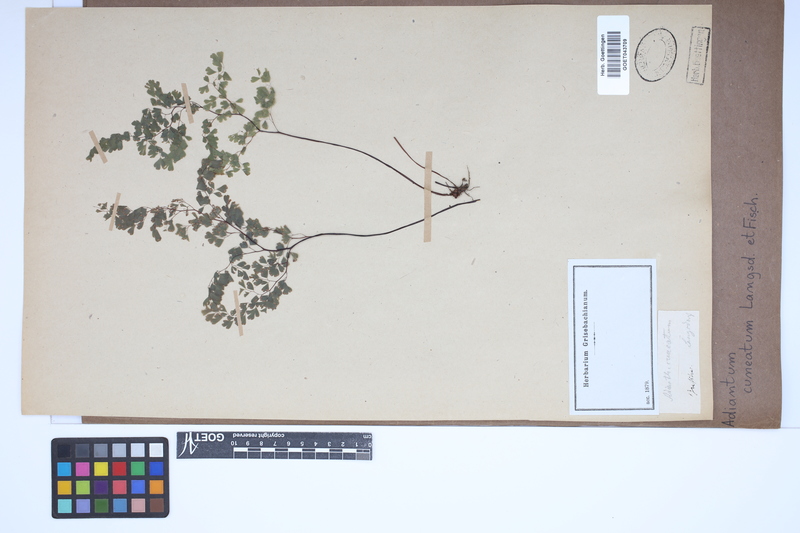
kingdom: Plantae
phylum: Tracheophyta
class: Polypodiopsida
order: Polypodiales
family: Pteridaceae
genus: Adiantum
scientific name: Adiantum raddianum
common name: Delta maidenhair fern
